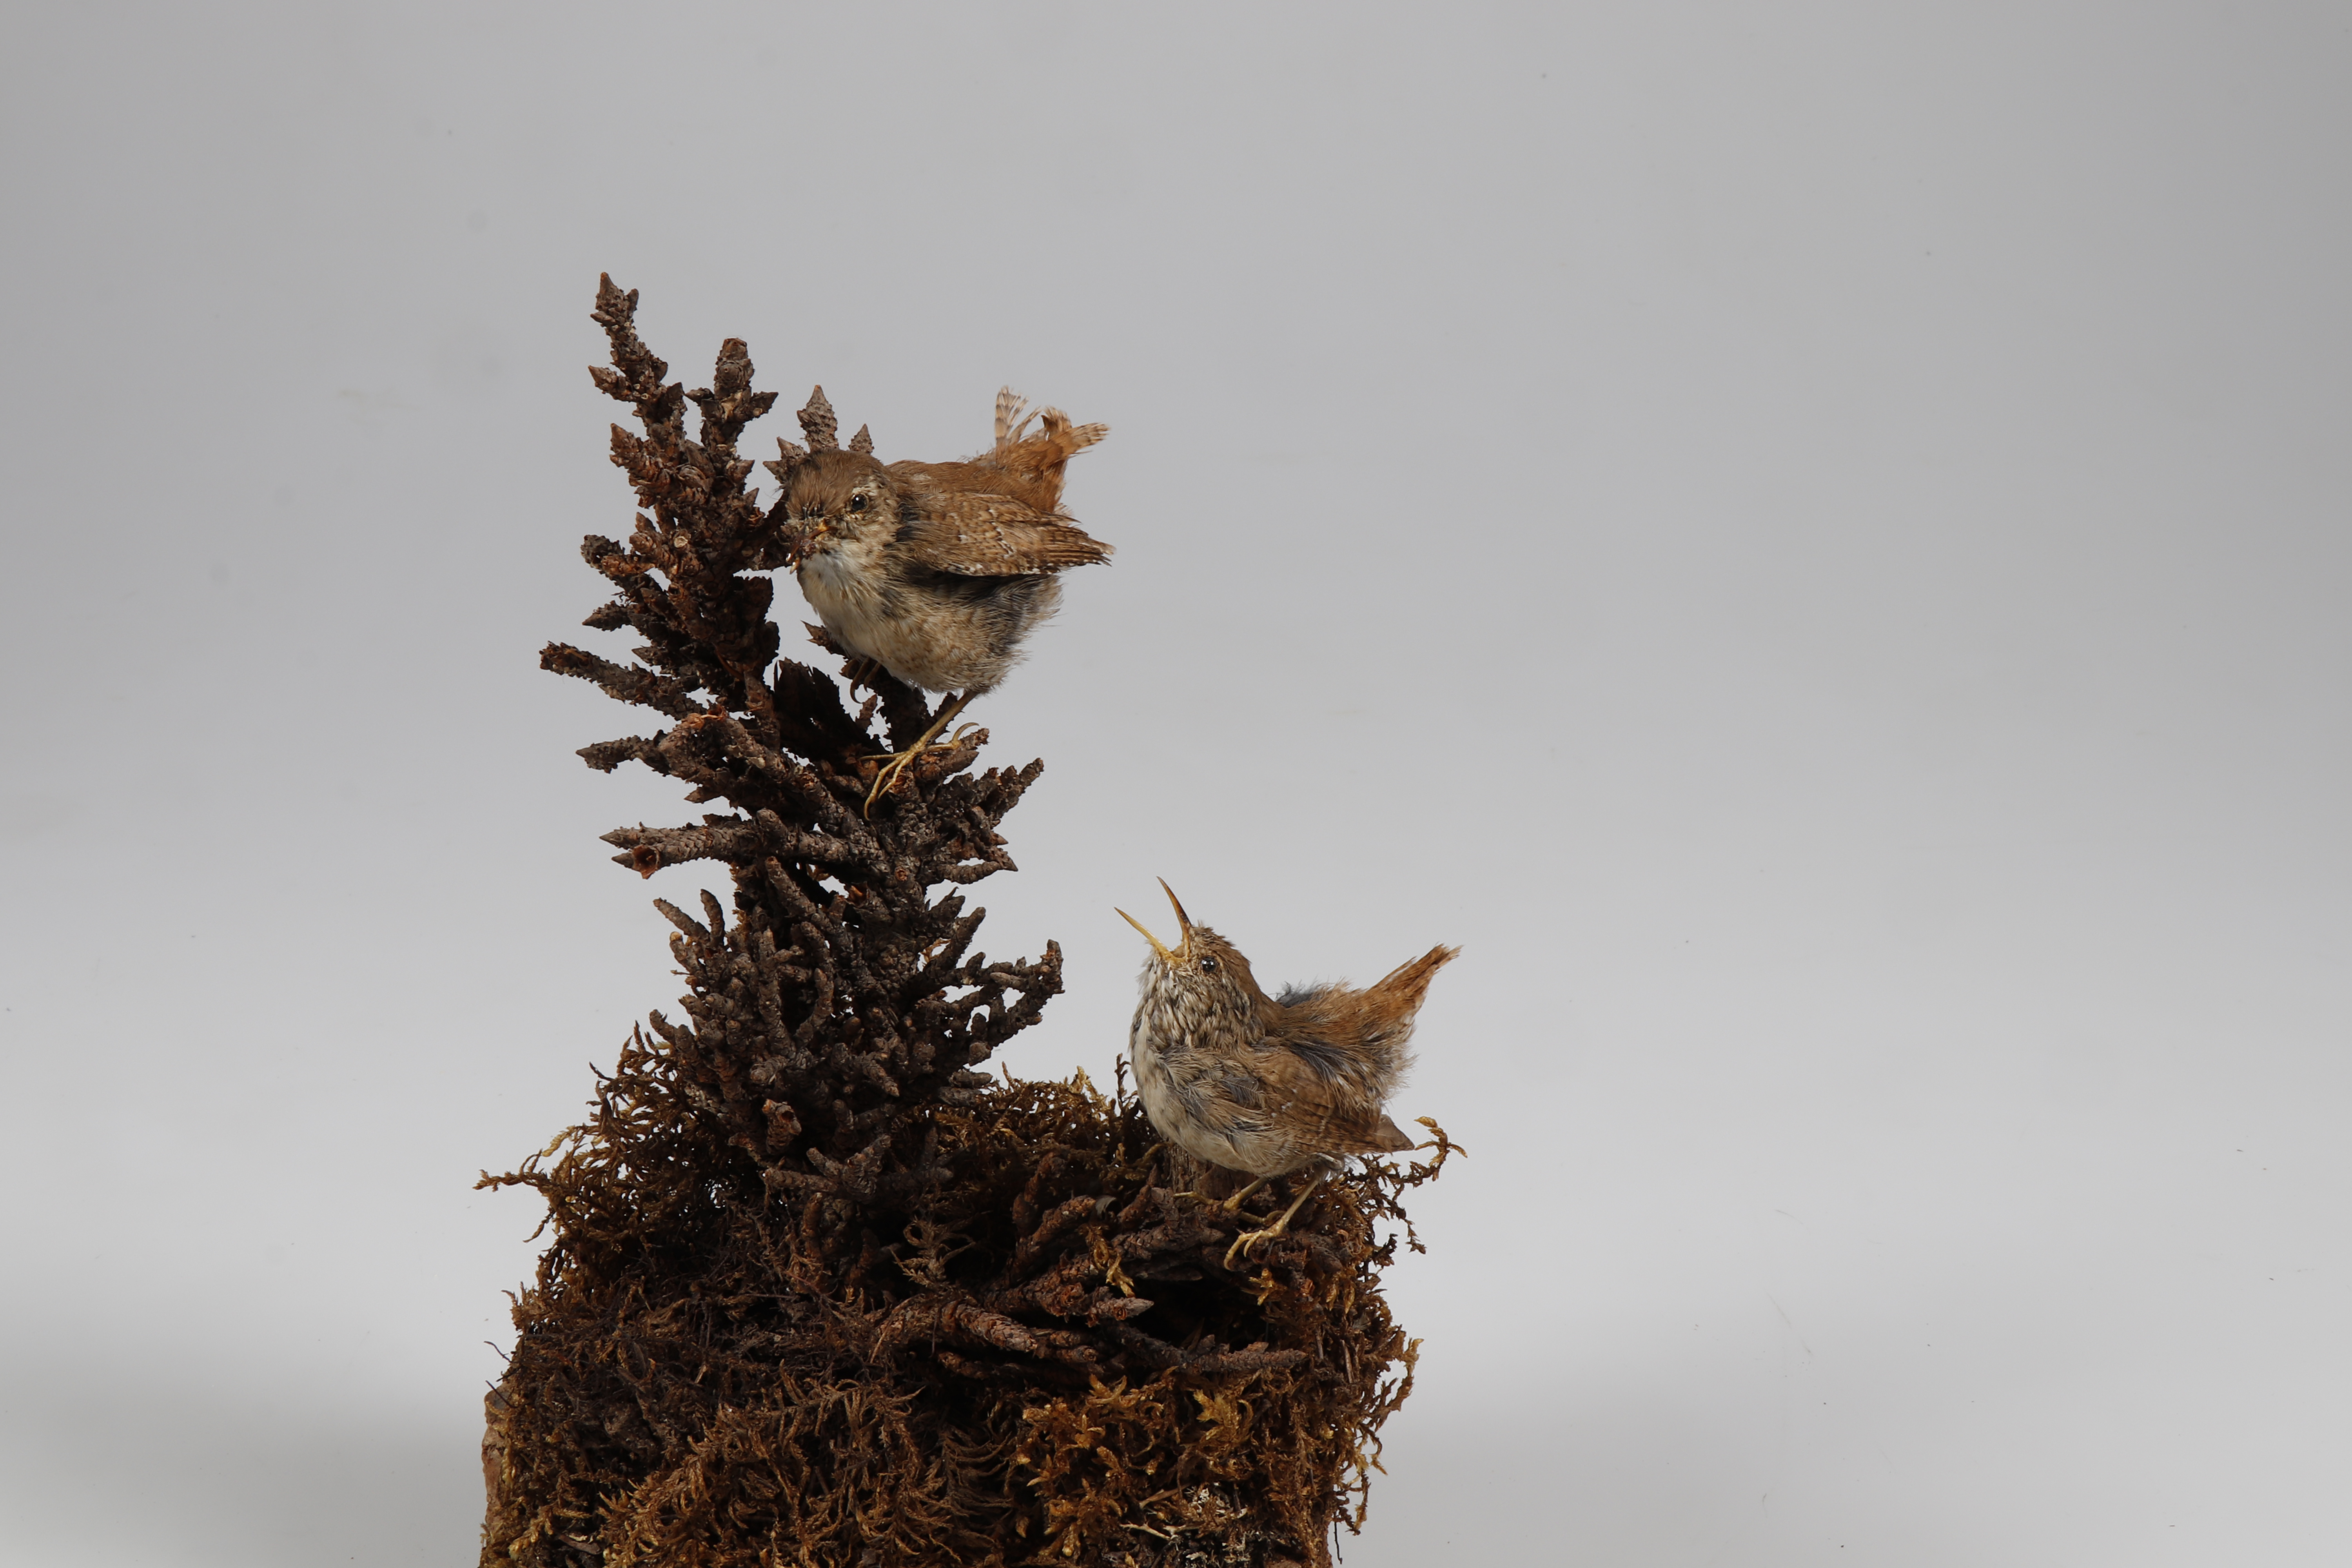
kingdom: Animalia
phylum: Chordata
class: Aves
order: Passeriformes
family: Troglodytidae
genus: Troglodytes
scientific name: Troglodytes troglodytes
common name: Eurasian wren
